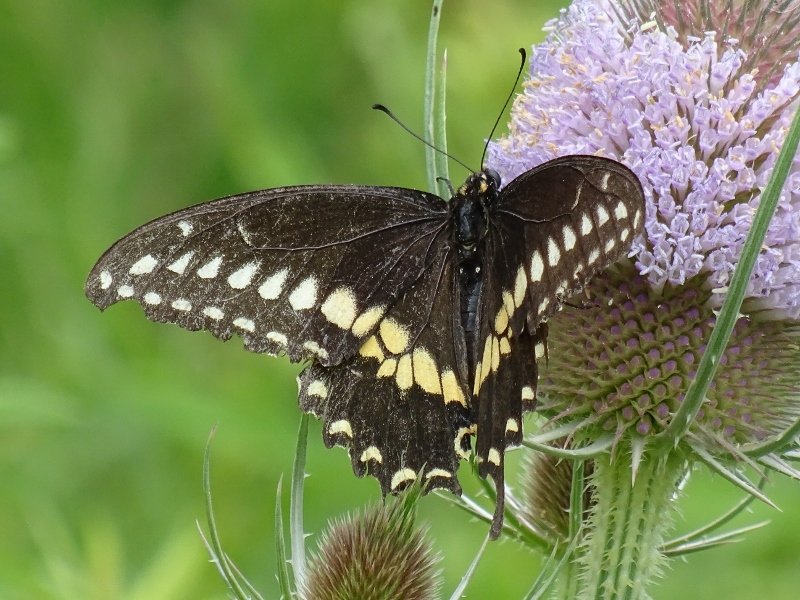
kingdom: Animalia
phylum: Arthropoda
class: Insecta
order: Lepidoptera
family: Papilionidae
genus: Papilio
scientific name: Papilio polyxenes
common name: Black Swallowtail
